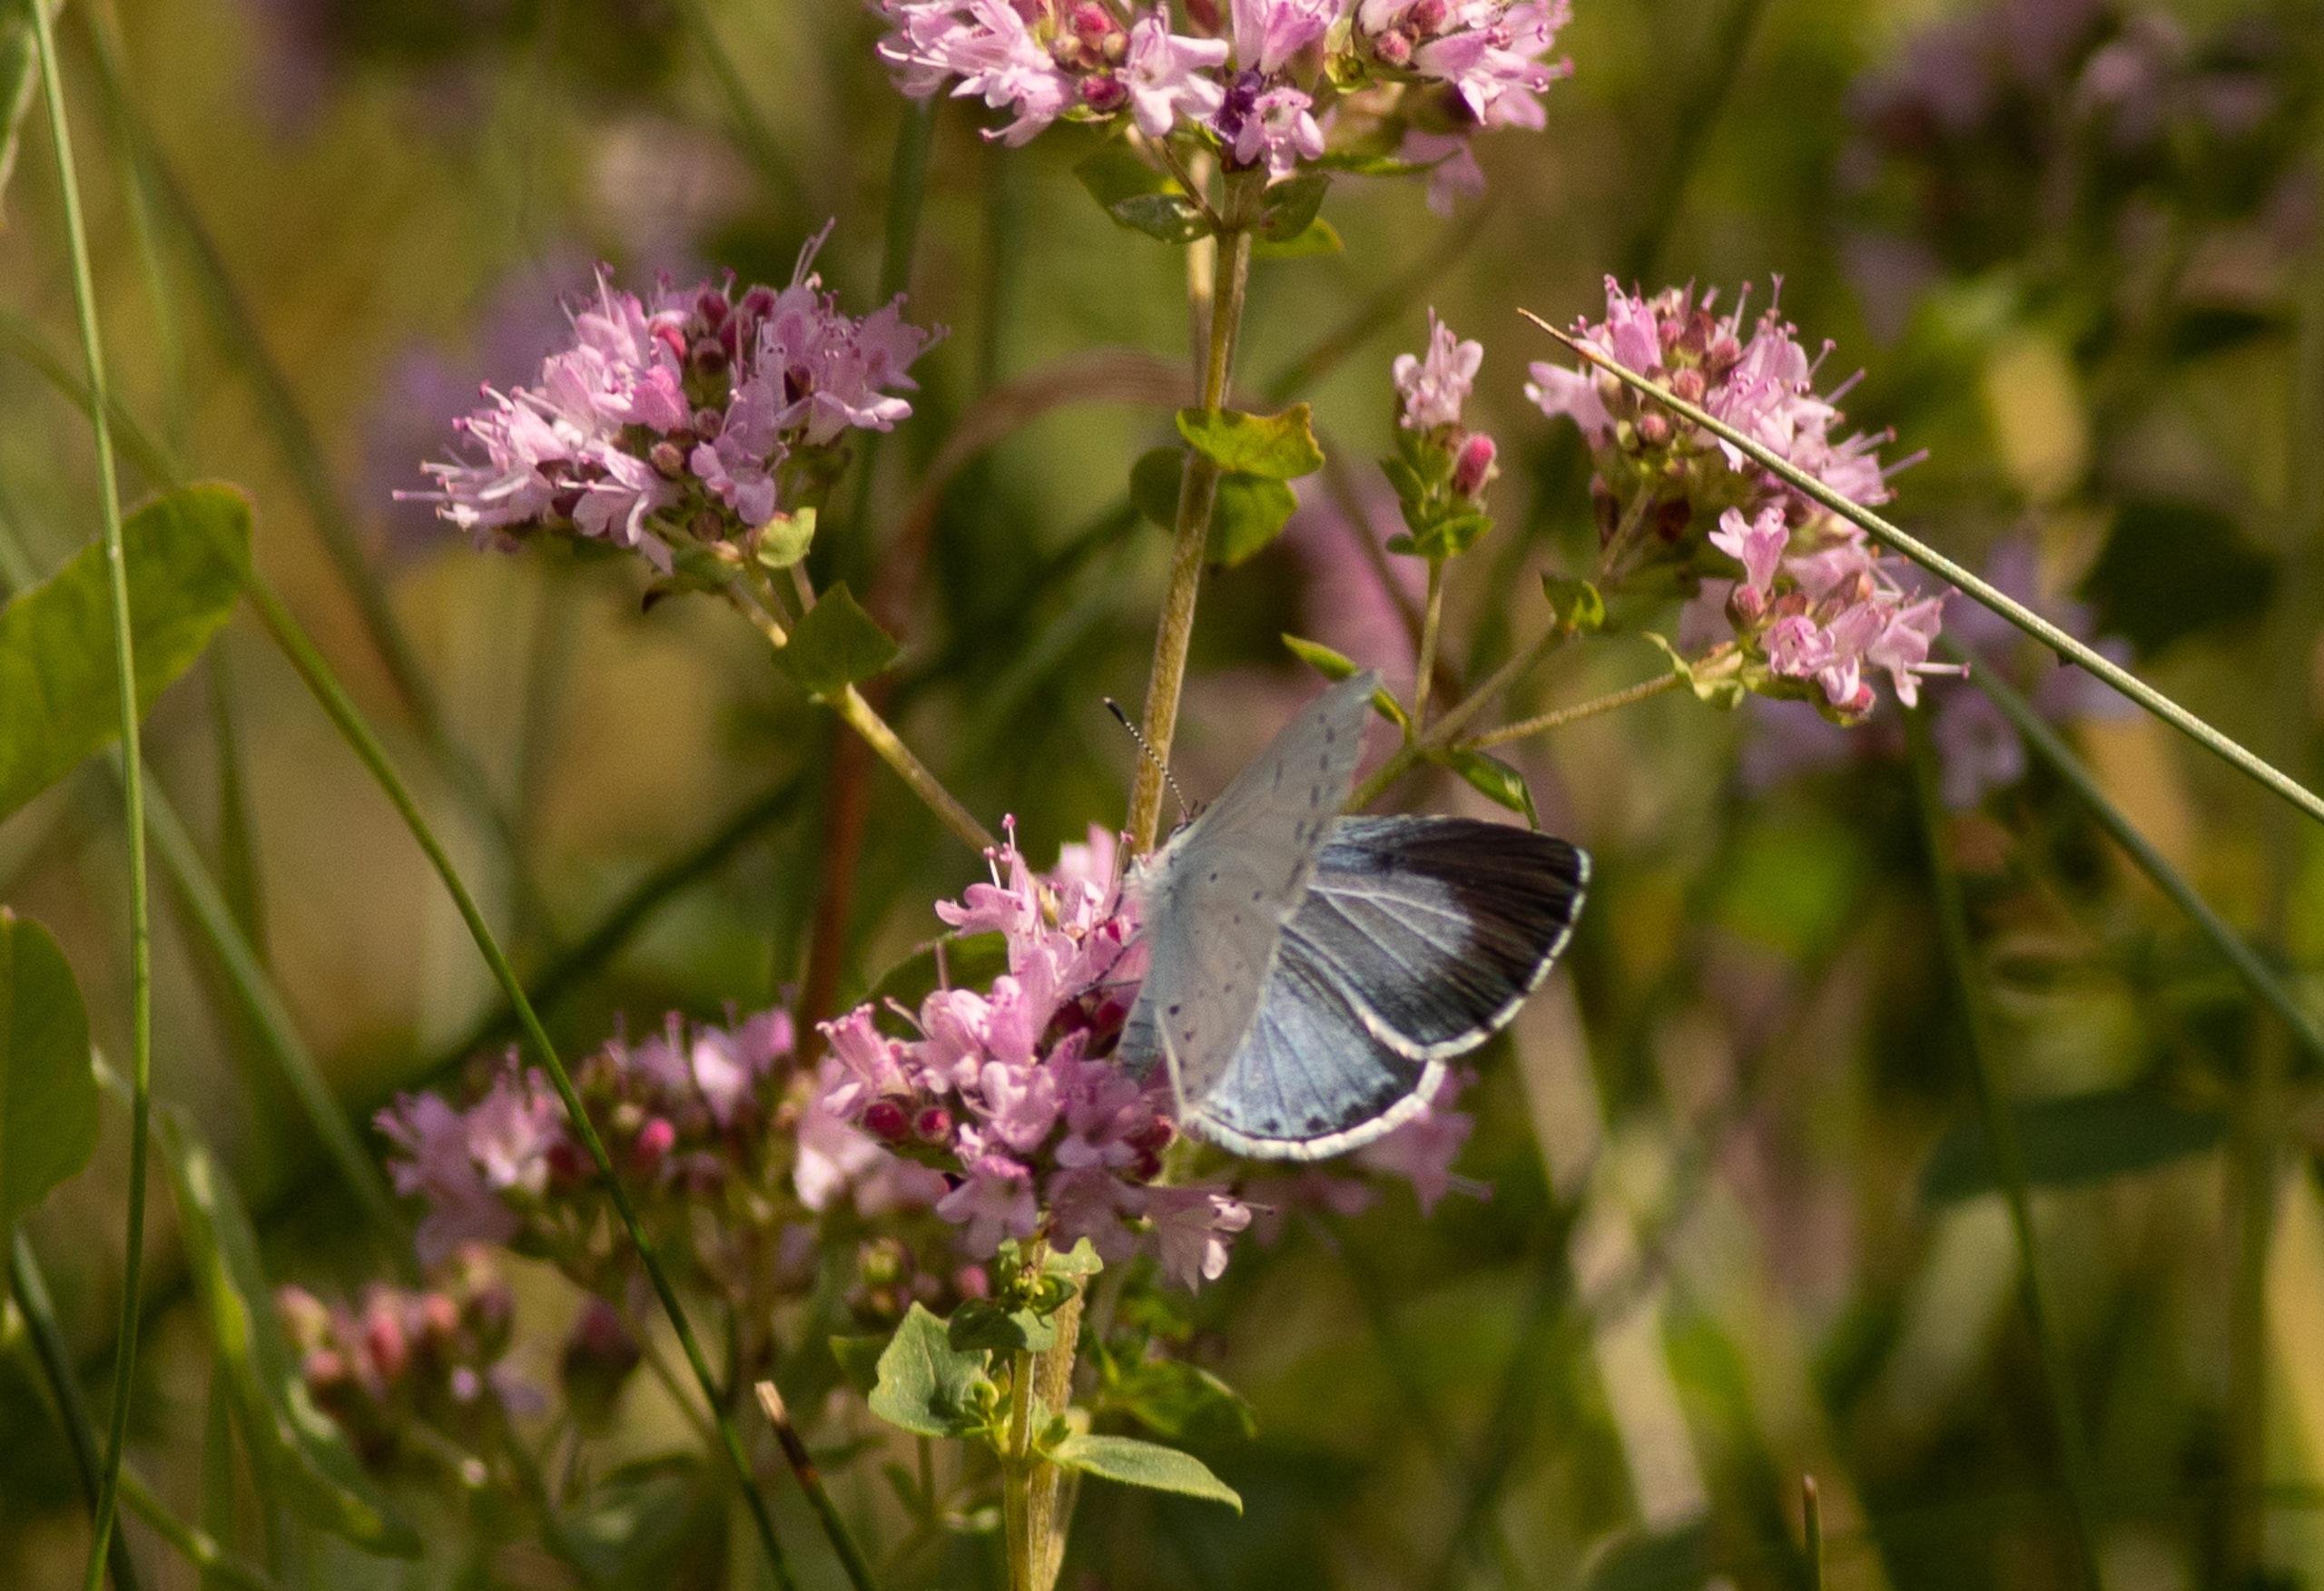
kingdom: Animalia
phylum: Arthropoda
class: Insecta
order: Lepidoptera
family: Lycaenidae
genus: Celastrina
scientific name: Celastrina argiolus
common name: Skovblåfugl
